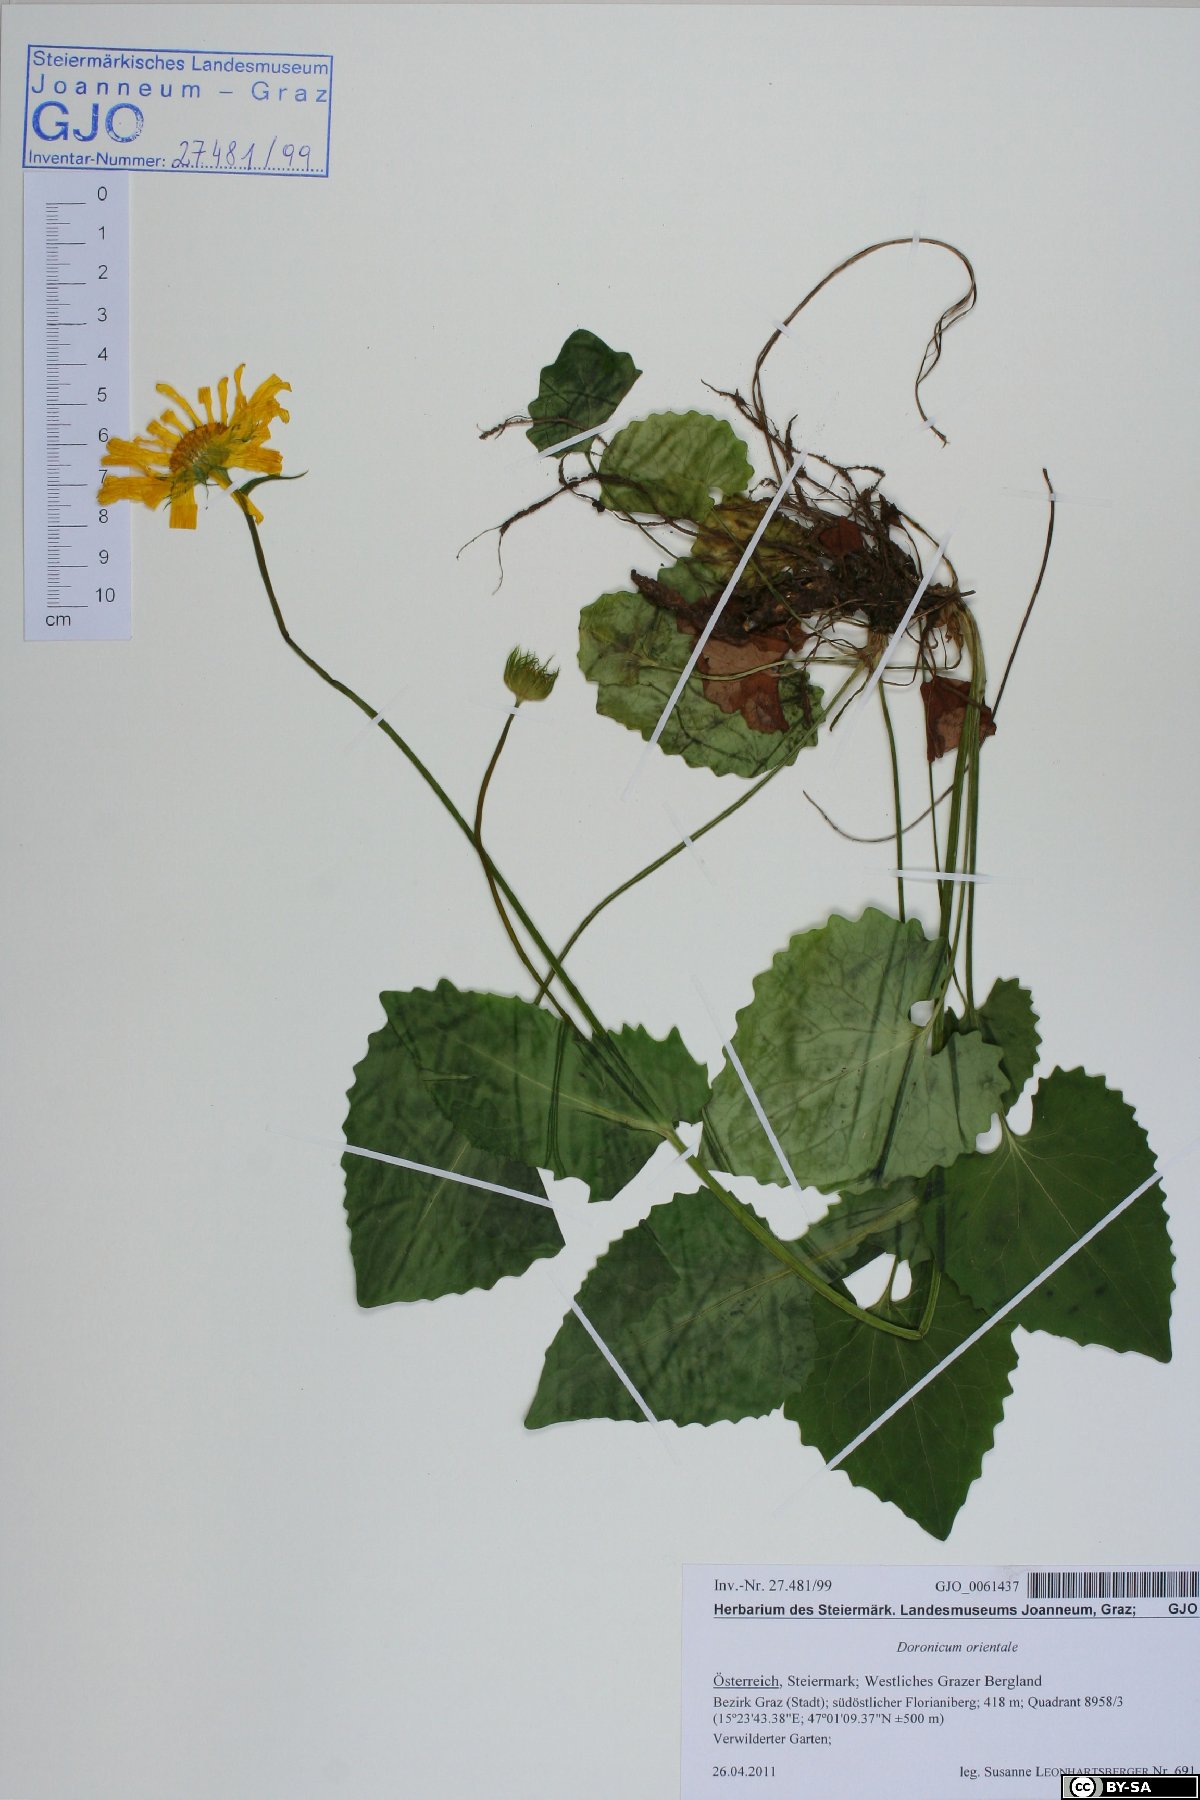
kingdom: Plantae
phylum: Tracheophyta
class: Magnoliopsida
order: Asterales
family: Asteraceae
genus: Doronicum
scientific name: Doronicum orientale
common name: Oriental leopard's-bane
